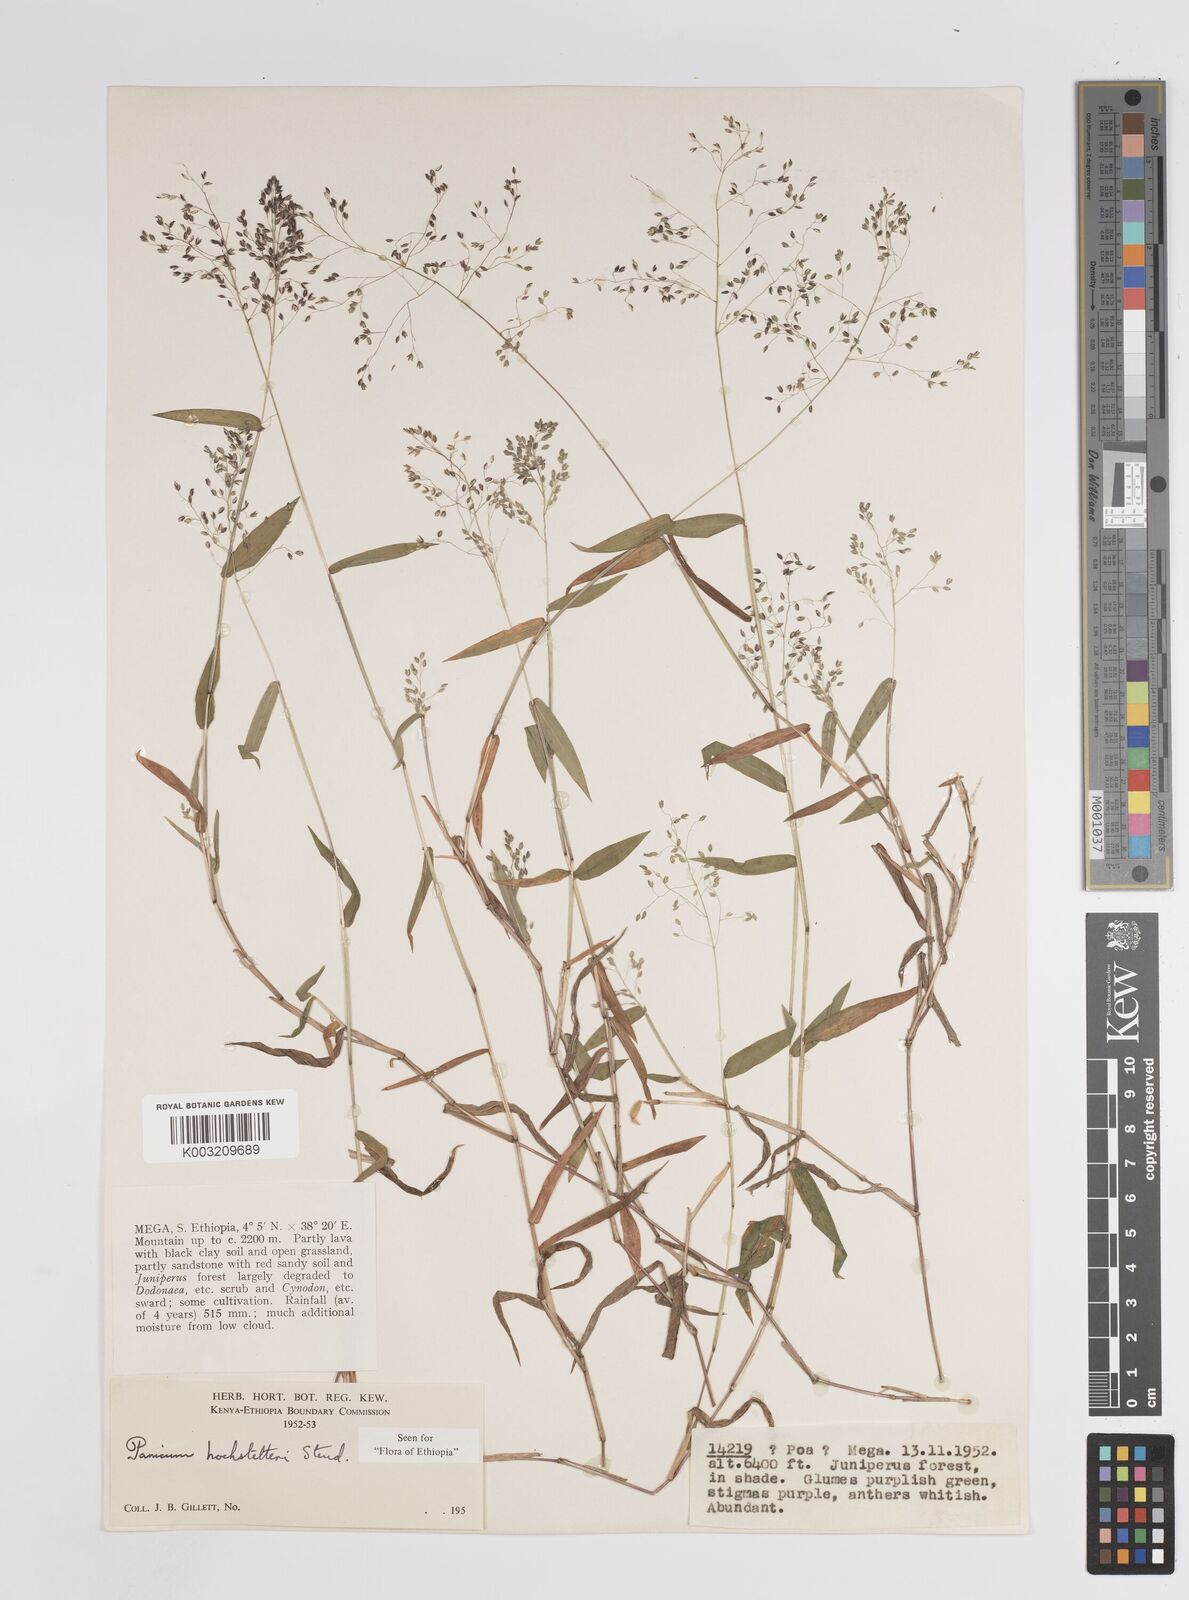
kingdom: Plantae
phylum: Tracheophyta
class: Liliopsida
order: Poales
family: Poaceae
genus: Panicum
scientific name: Panicum hochstetteri
